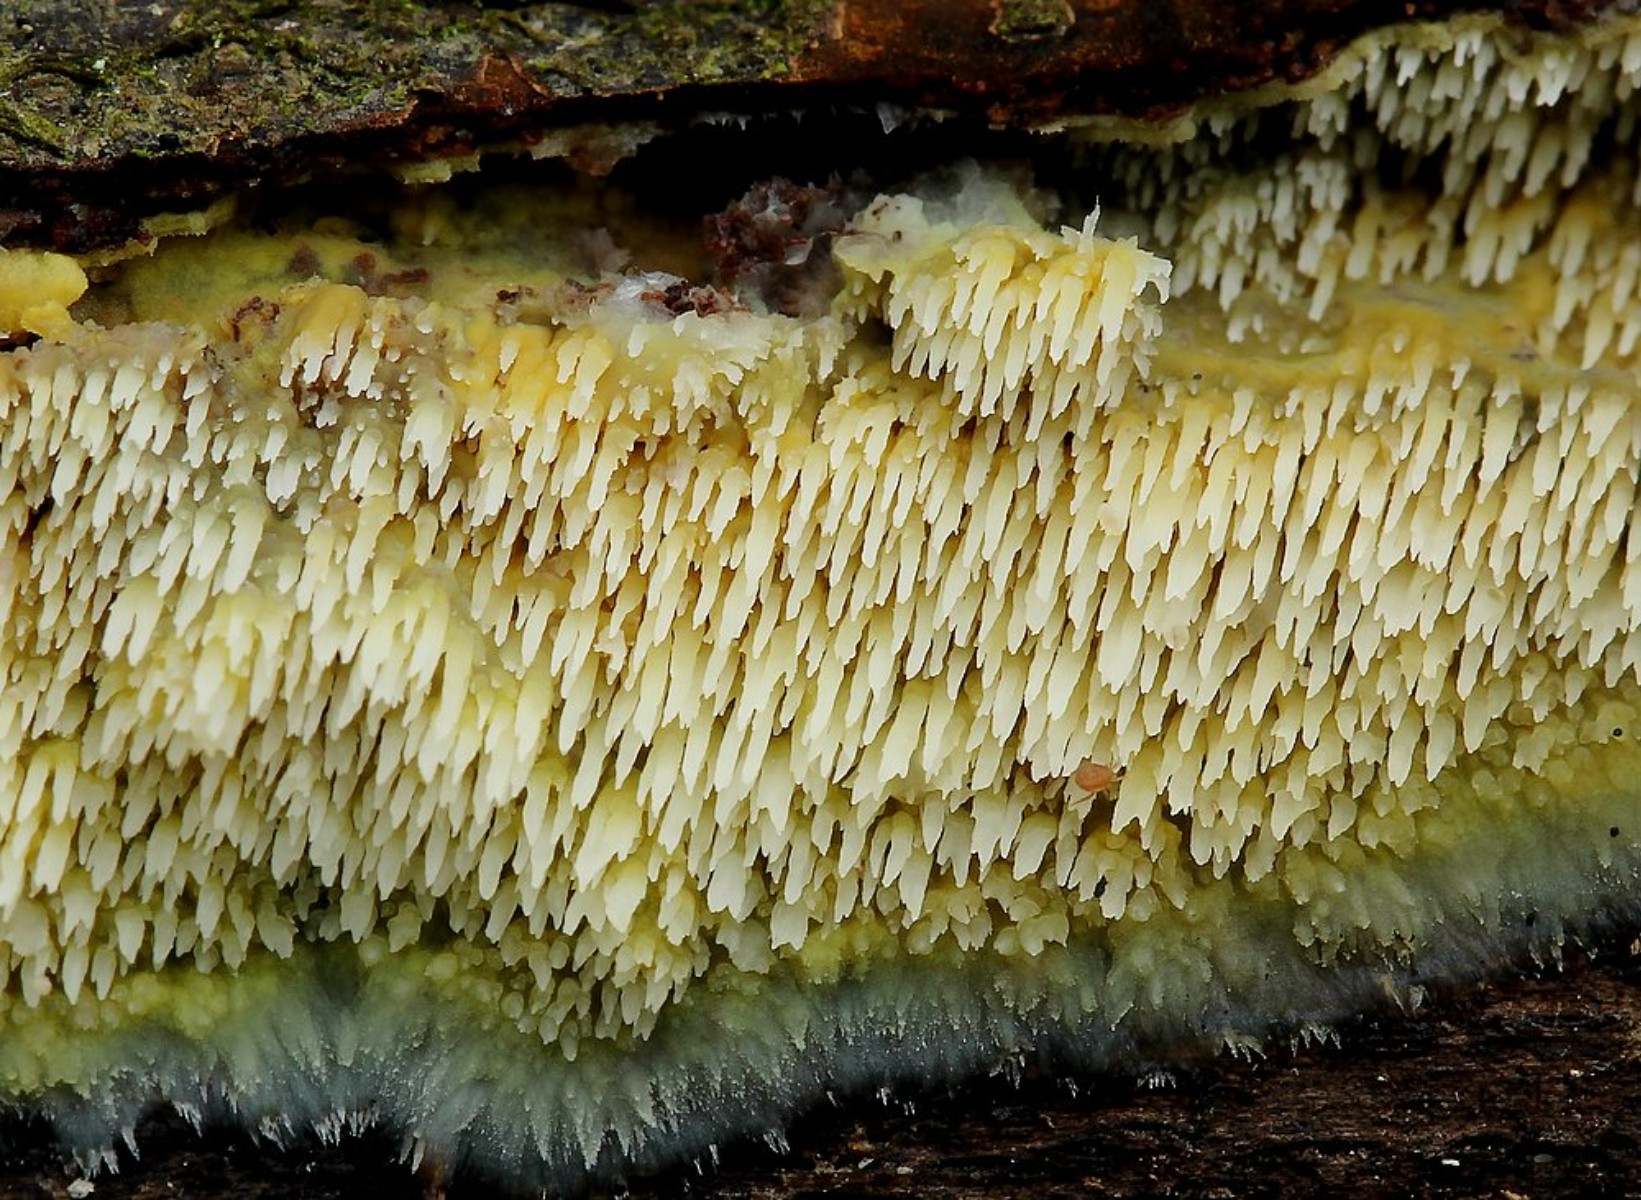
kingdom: Fungi
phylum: Basidiomycota
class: Agaricomycetes
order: Polyporales
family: Meruliaceae
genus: Mycoacia
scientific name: Mycoacia uda
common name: citrongul vokspig
